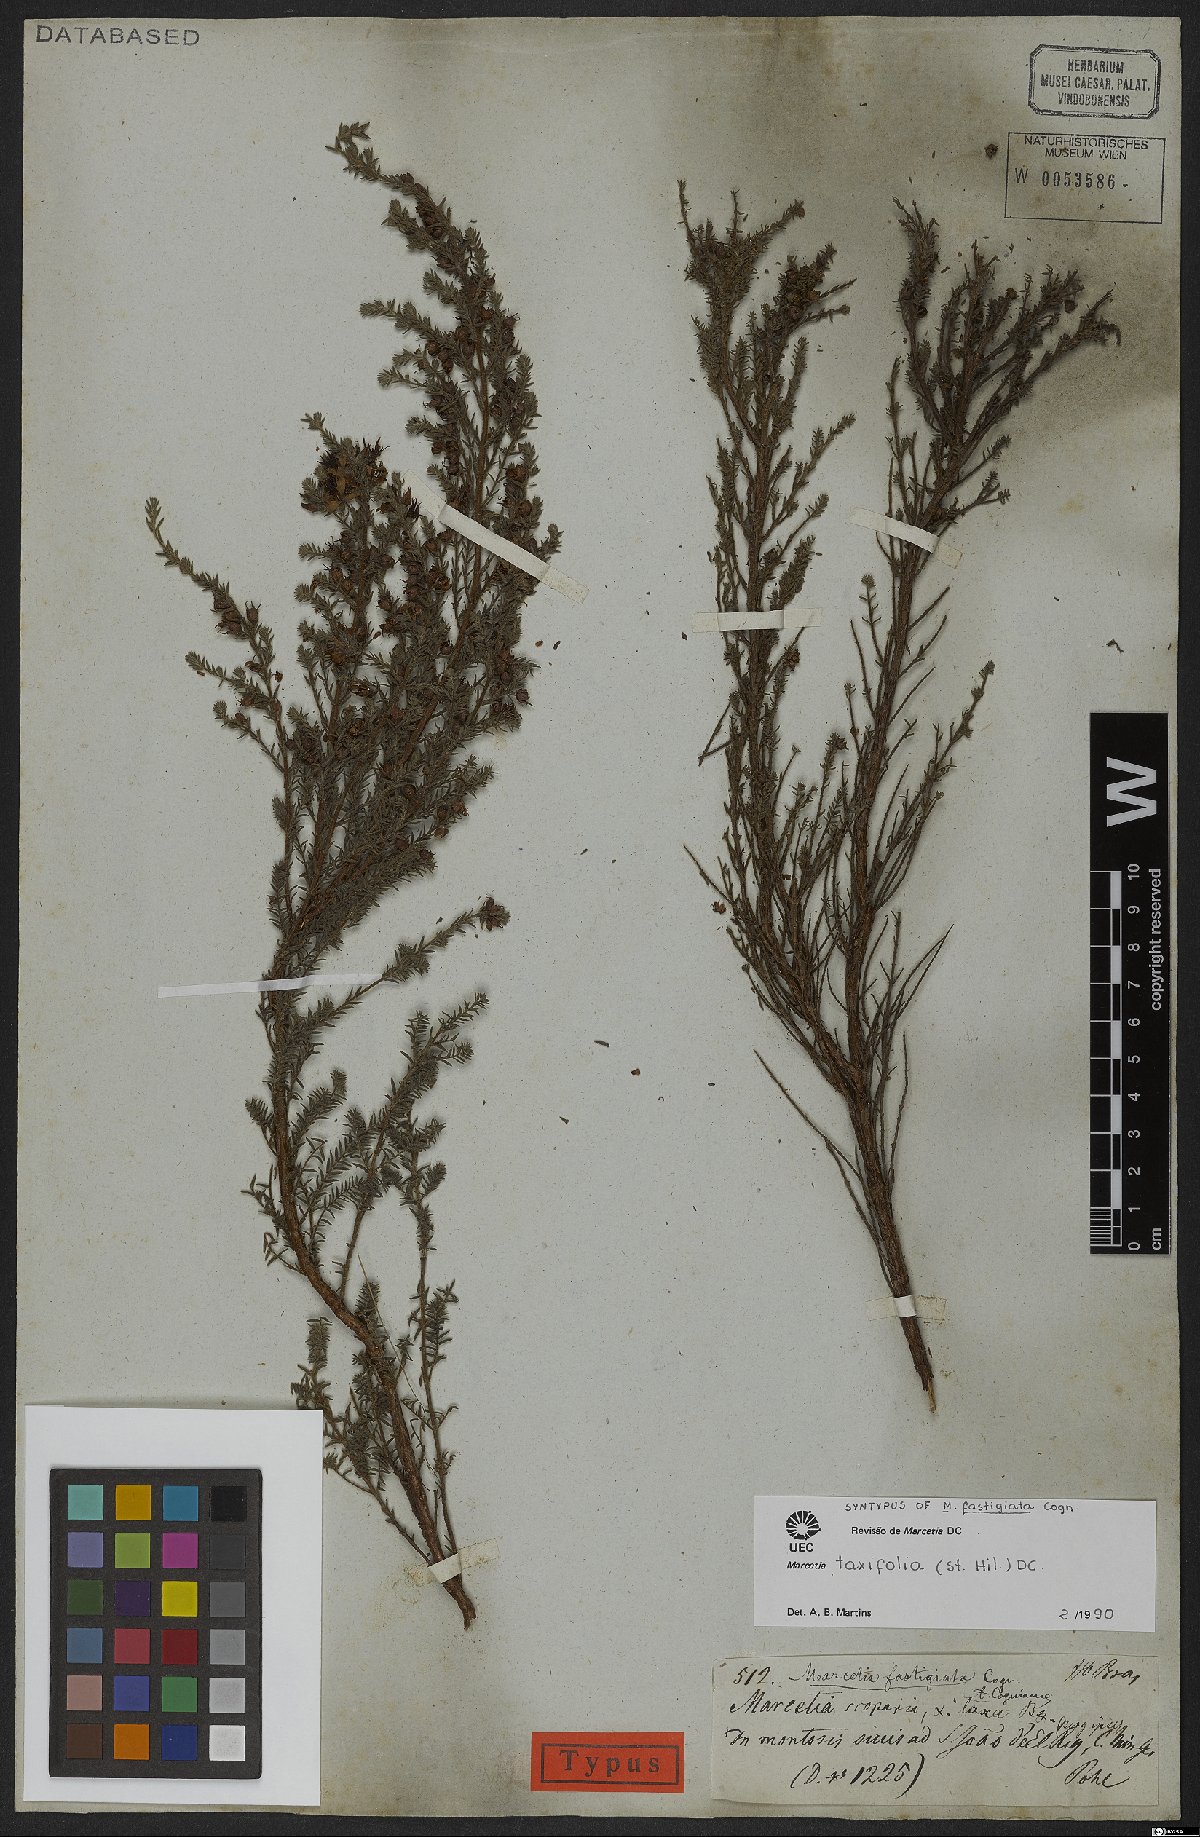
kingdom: Plantae
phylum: Tracheophyta
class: Magnoliopsida
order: Myrtales
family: Melastomataceae
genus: Marcetia
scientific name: Marcetia taxifolia
